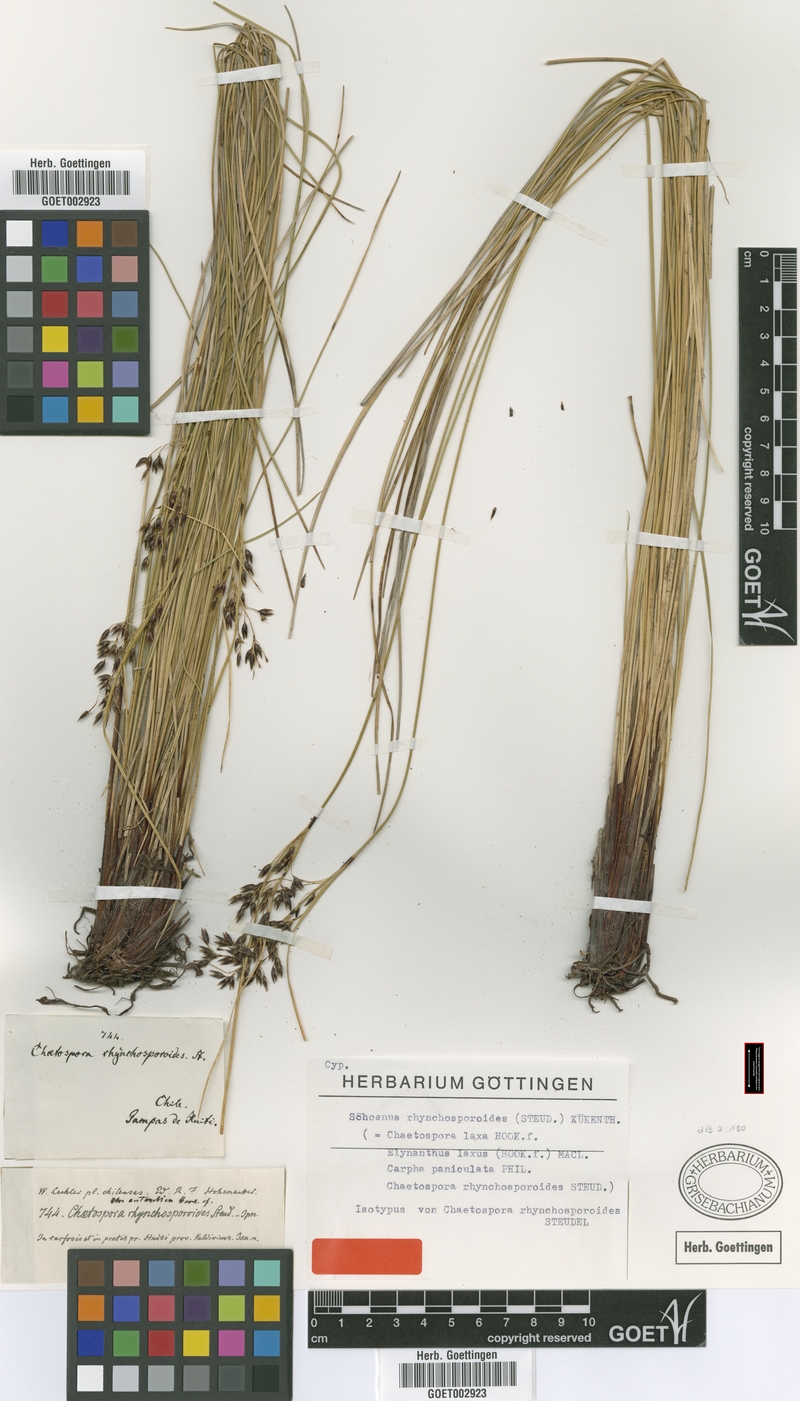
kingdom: Plantae
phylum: Tracheophyta
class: Liliopsida
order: Poales
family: Cyperaceae
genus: Schoenus
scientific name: Schoenus rhynchosporoides
